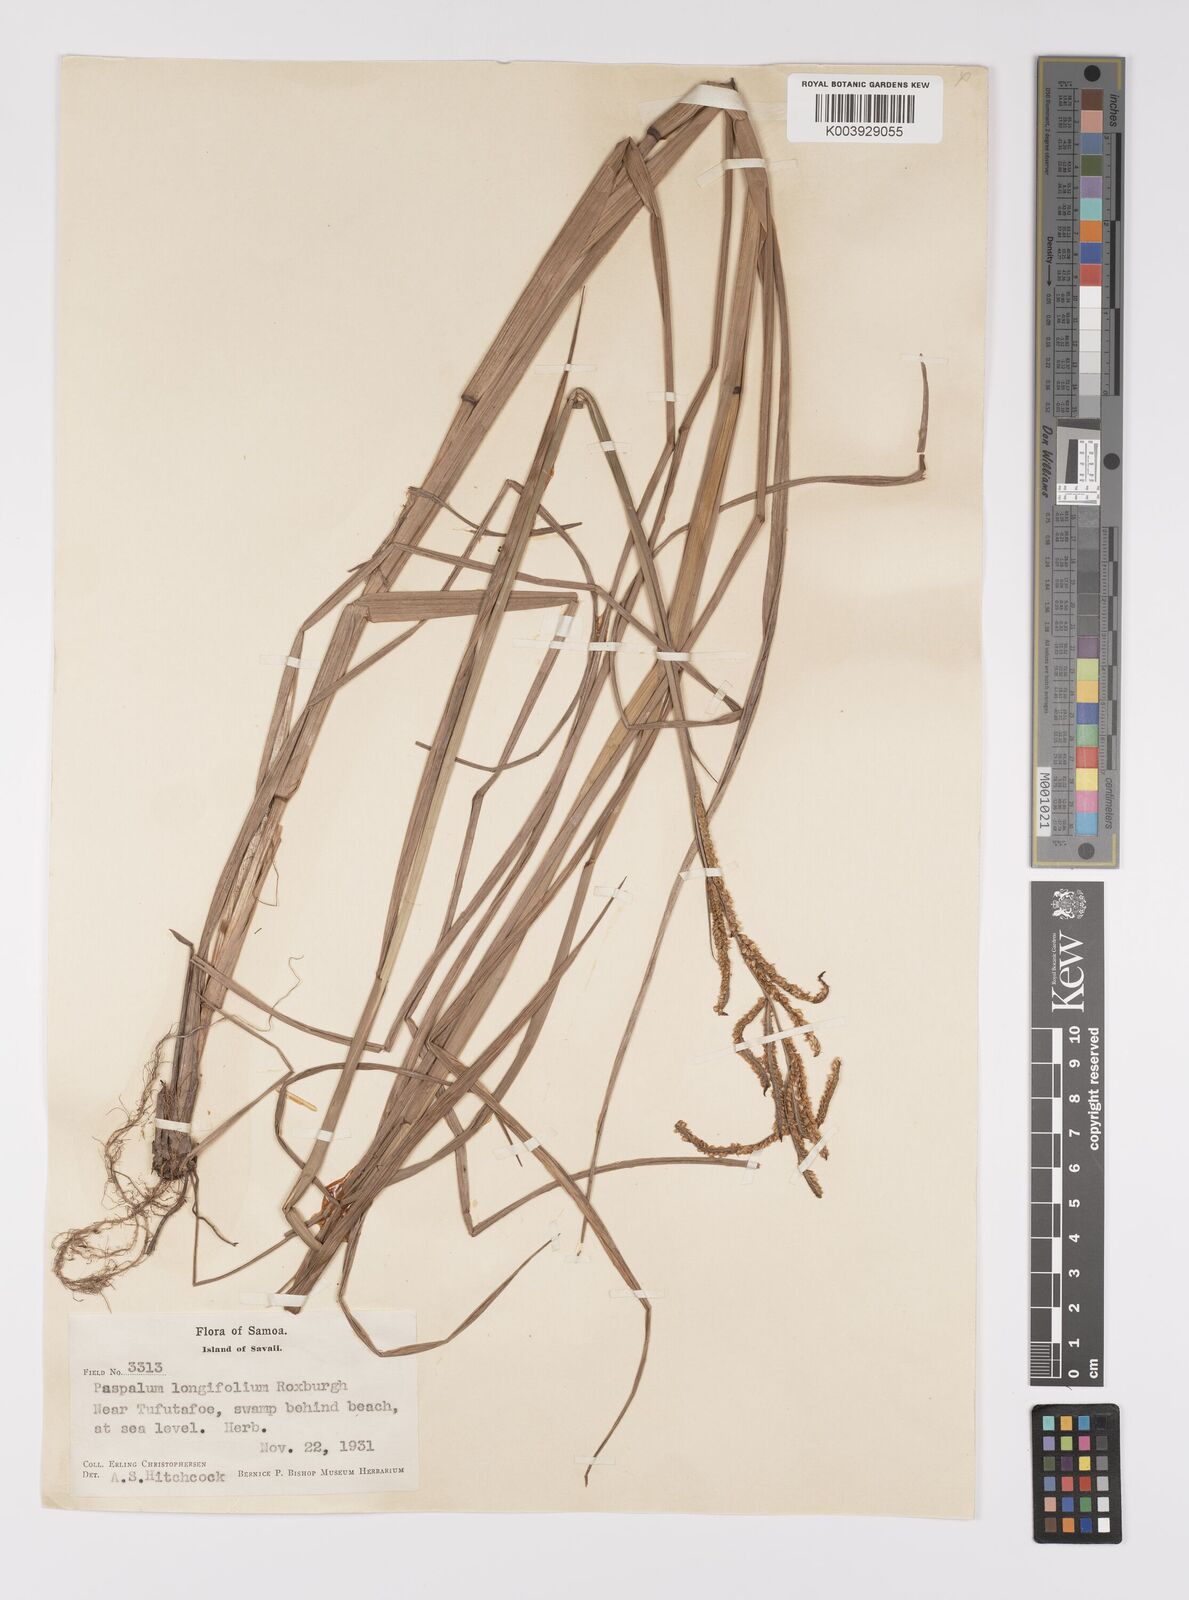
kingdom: Plantae
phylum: Tracheophyta
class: Liliopsida
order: Poales
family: Poaceae
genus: Paspalum
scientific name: Paspalum scrobiculatum
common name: Kodo millet
